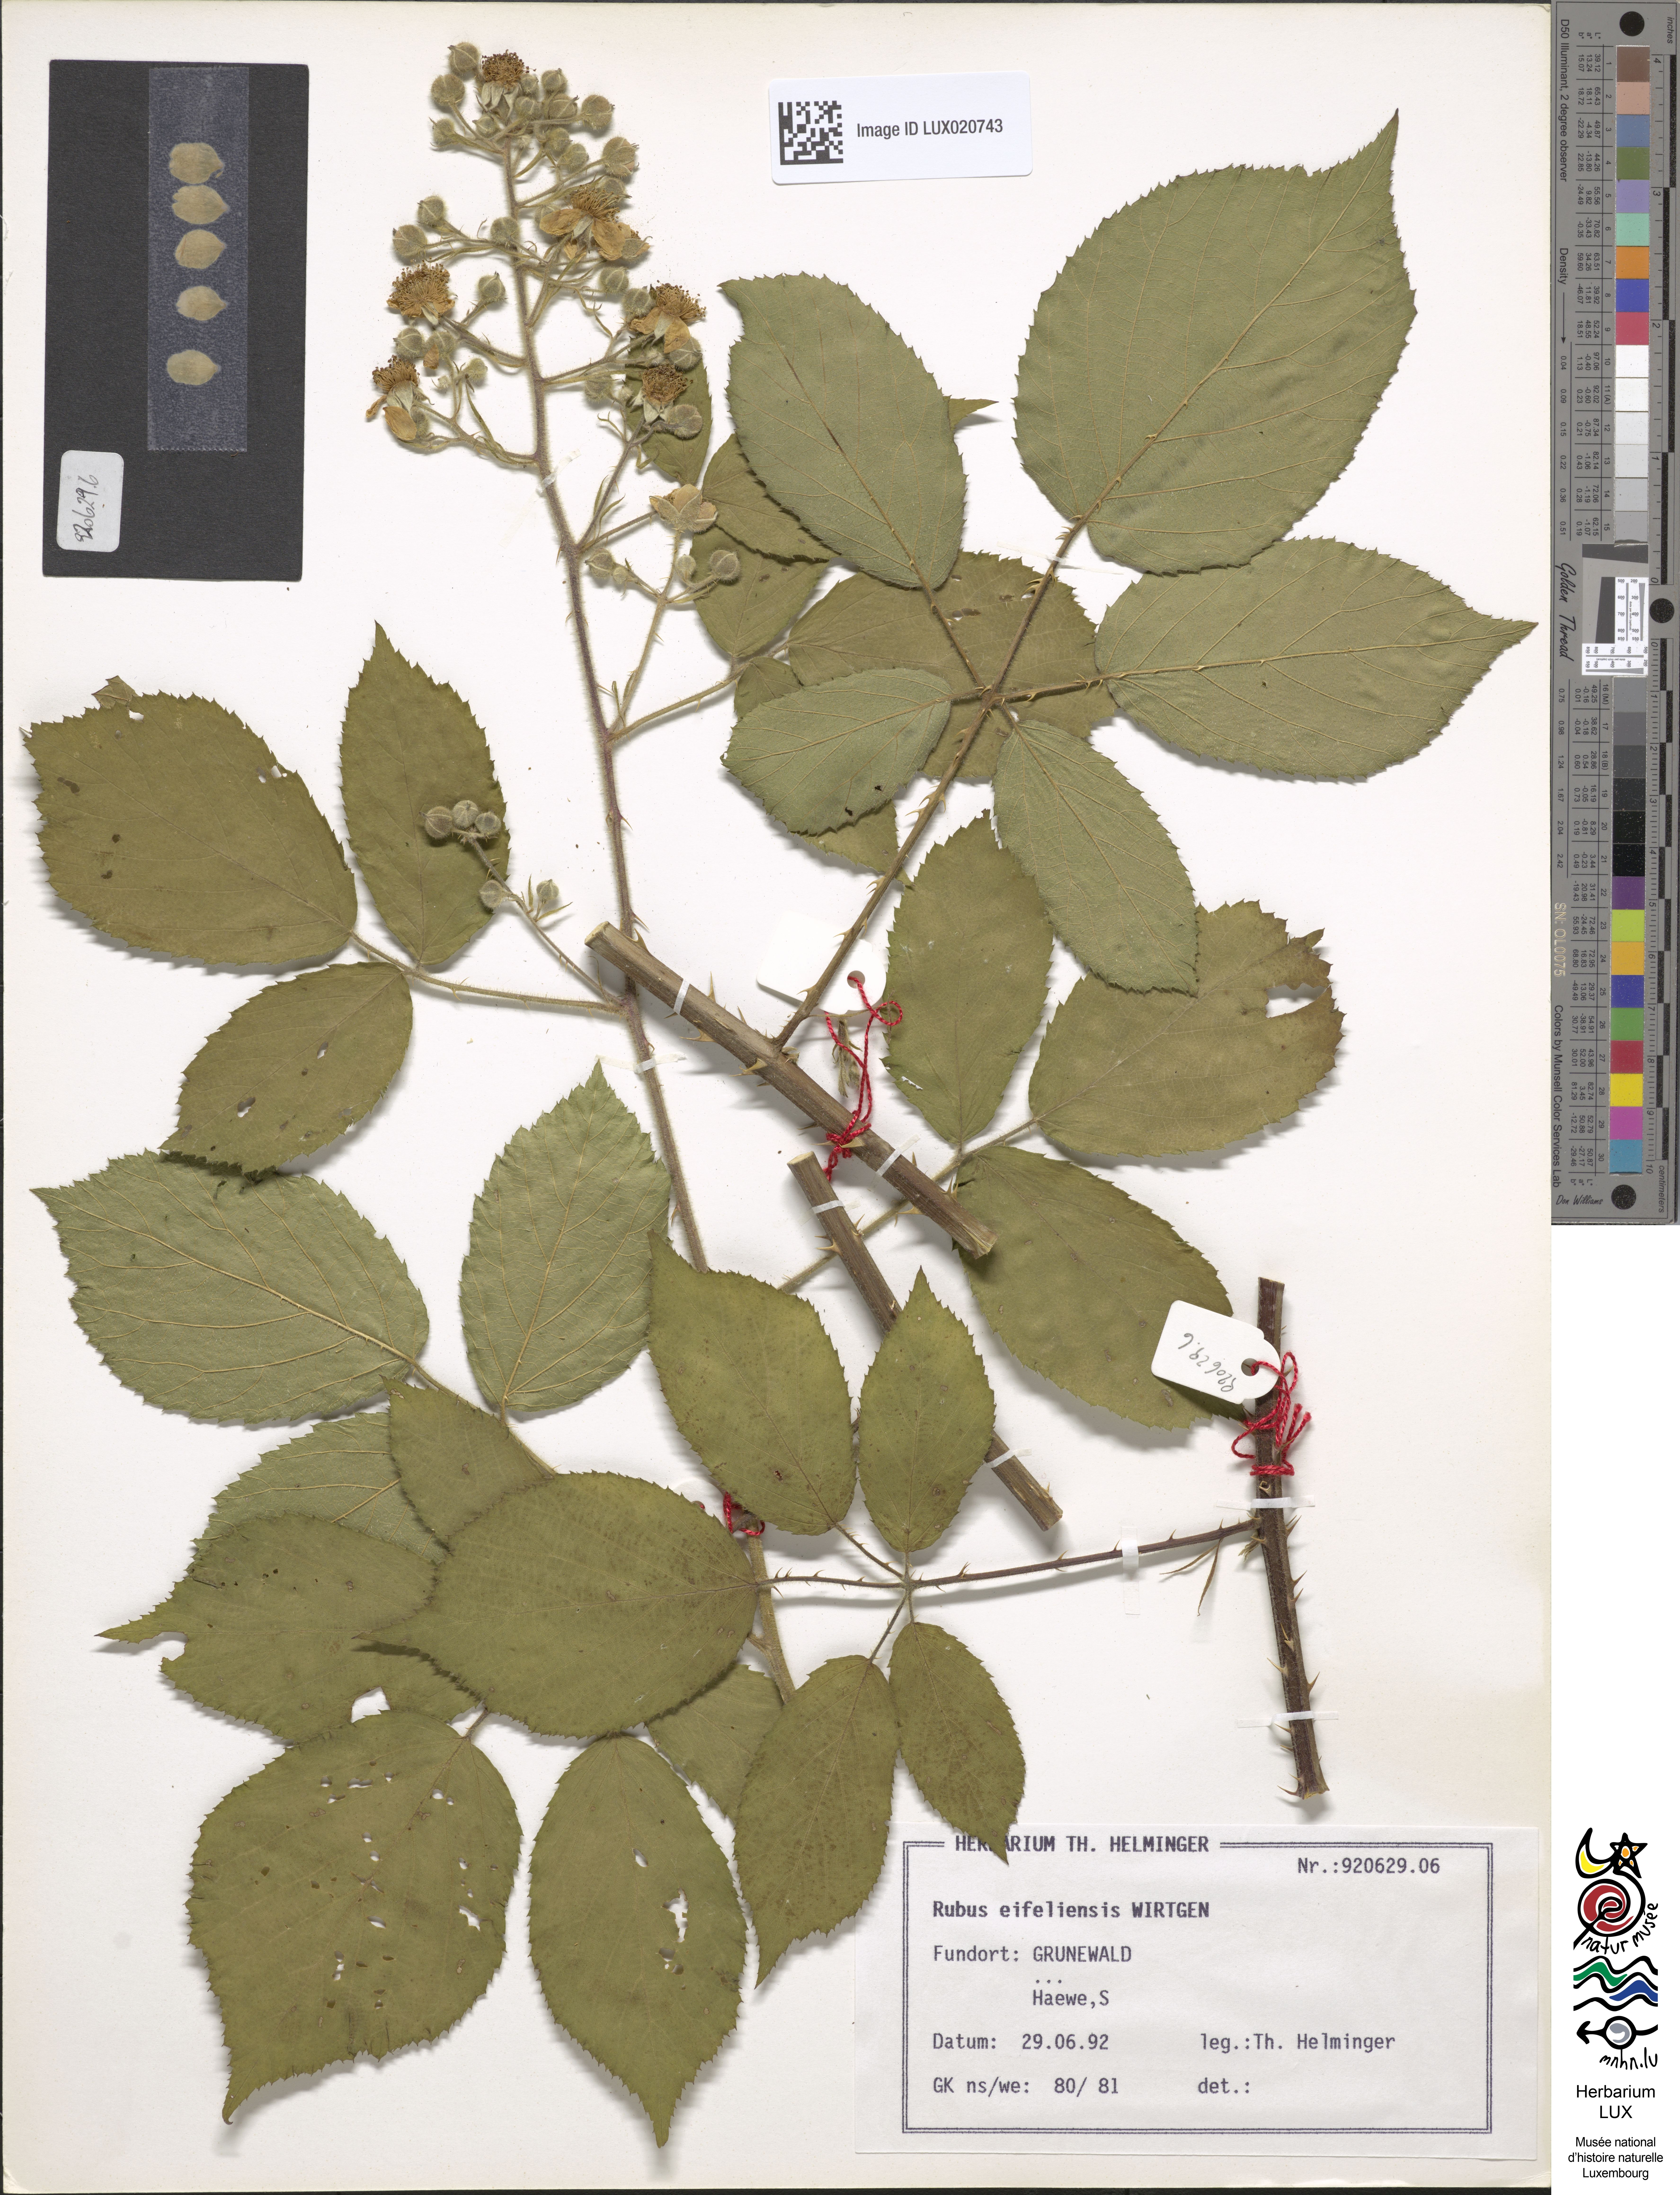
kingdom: Plantae
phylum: Tracheophyta
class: Magnoliopsida
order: Rosales
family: Rosaceae
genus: Rubus
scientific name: Rubus eifeliensis
